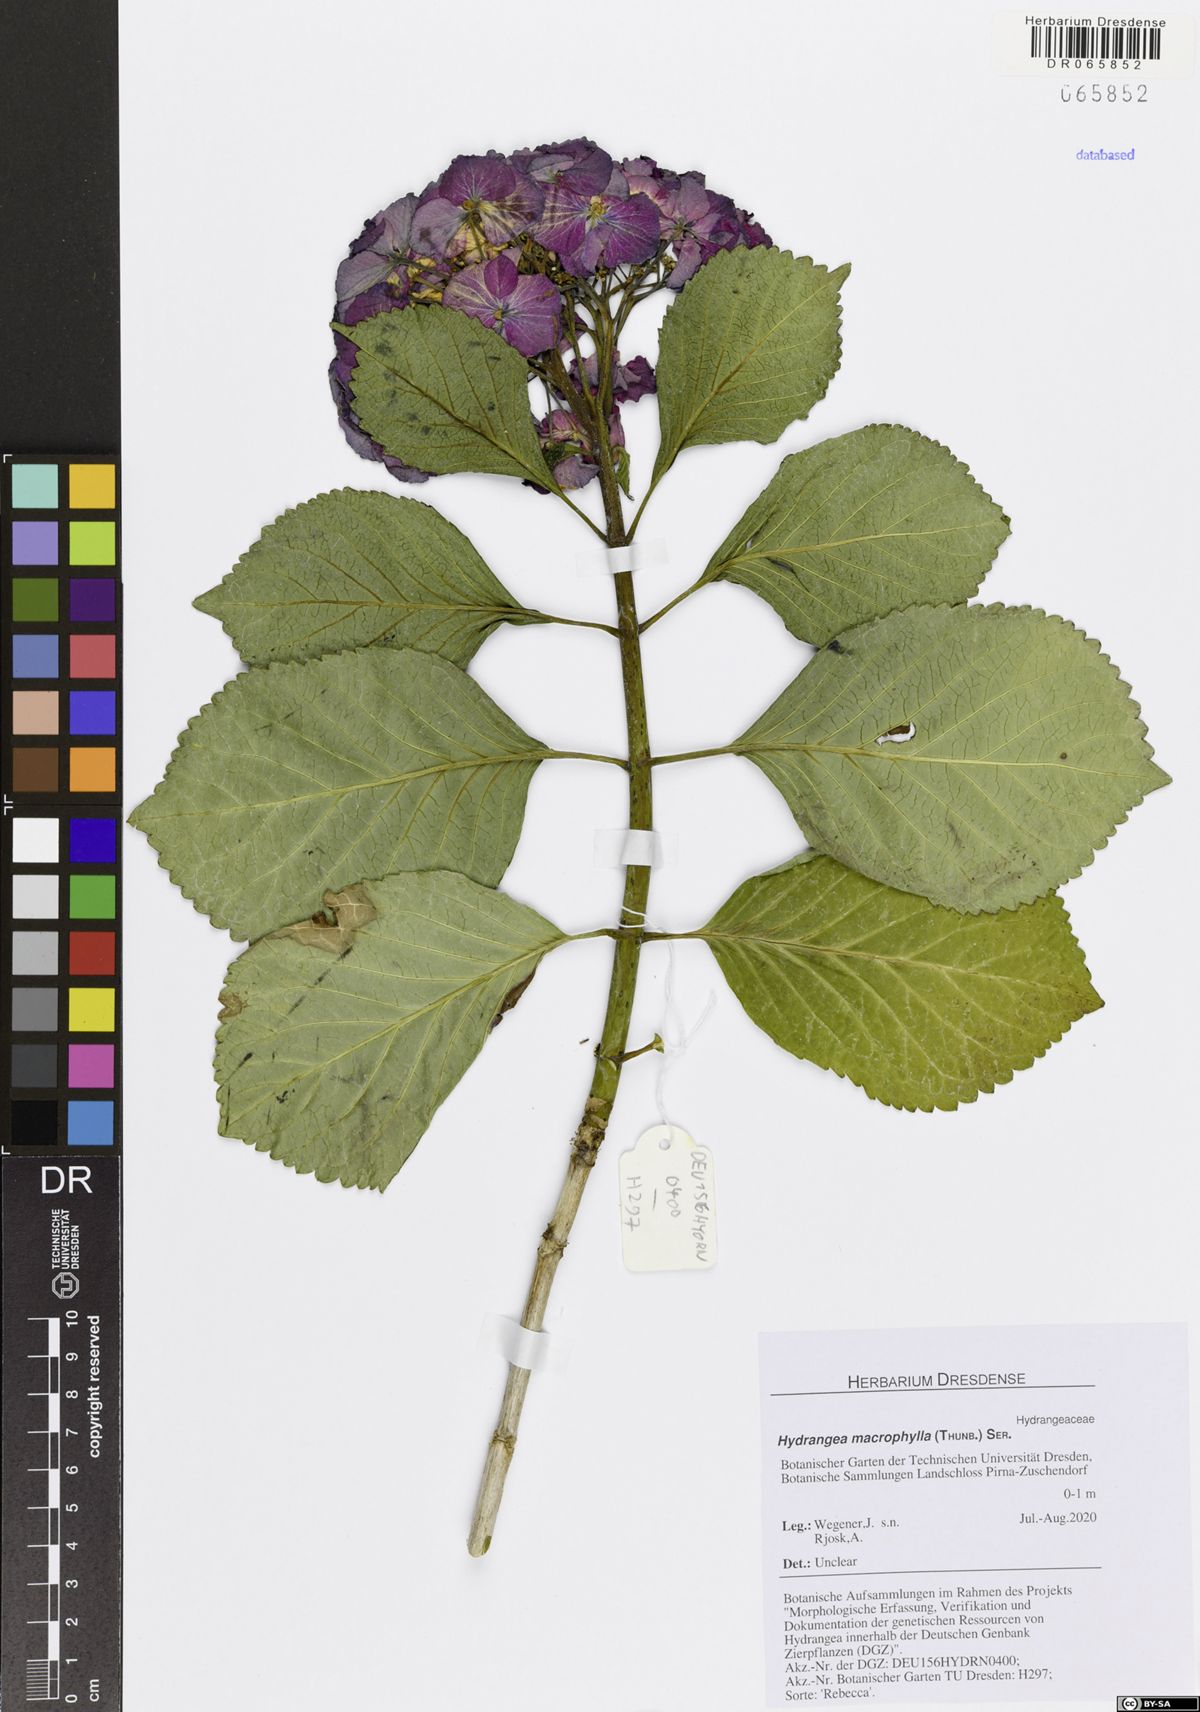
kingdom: Plantae
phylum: Tracheophyta
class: Magnoliopsida
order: Cornales
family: Hydrangeaceae
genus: Hydrangea
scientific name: Hydrangea macrophylla
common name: Hydrangea
